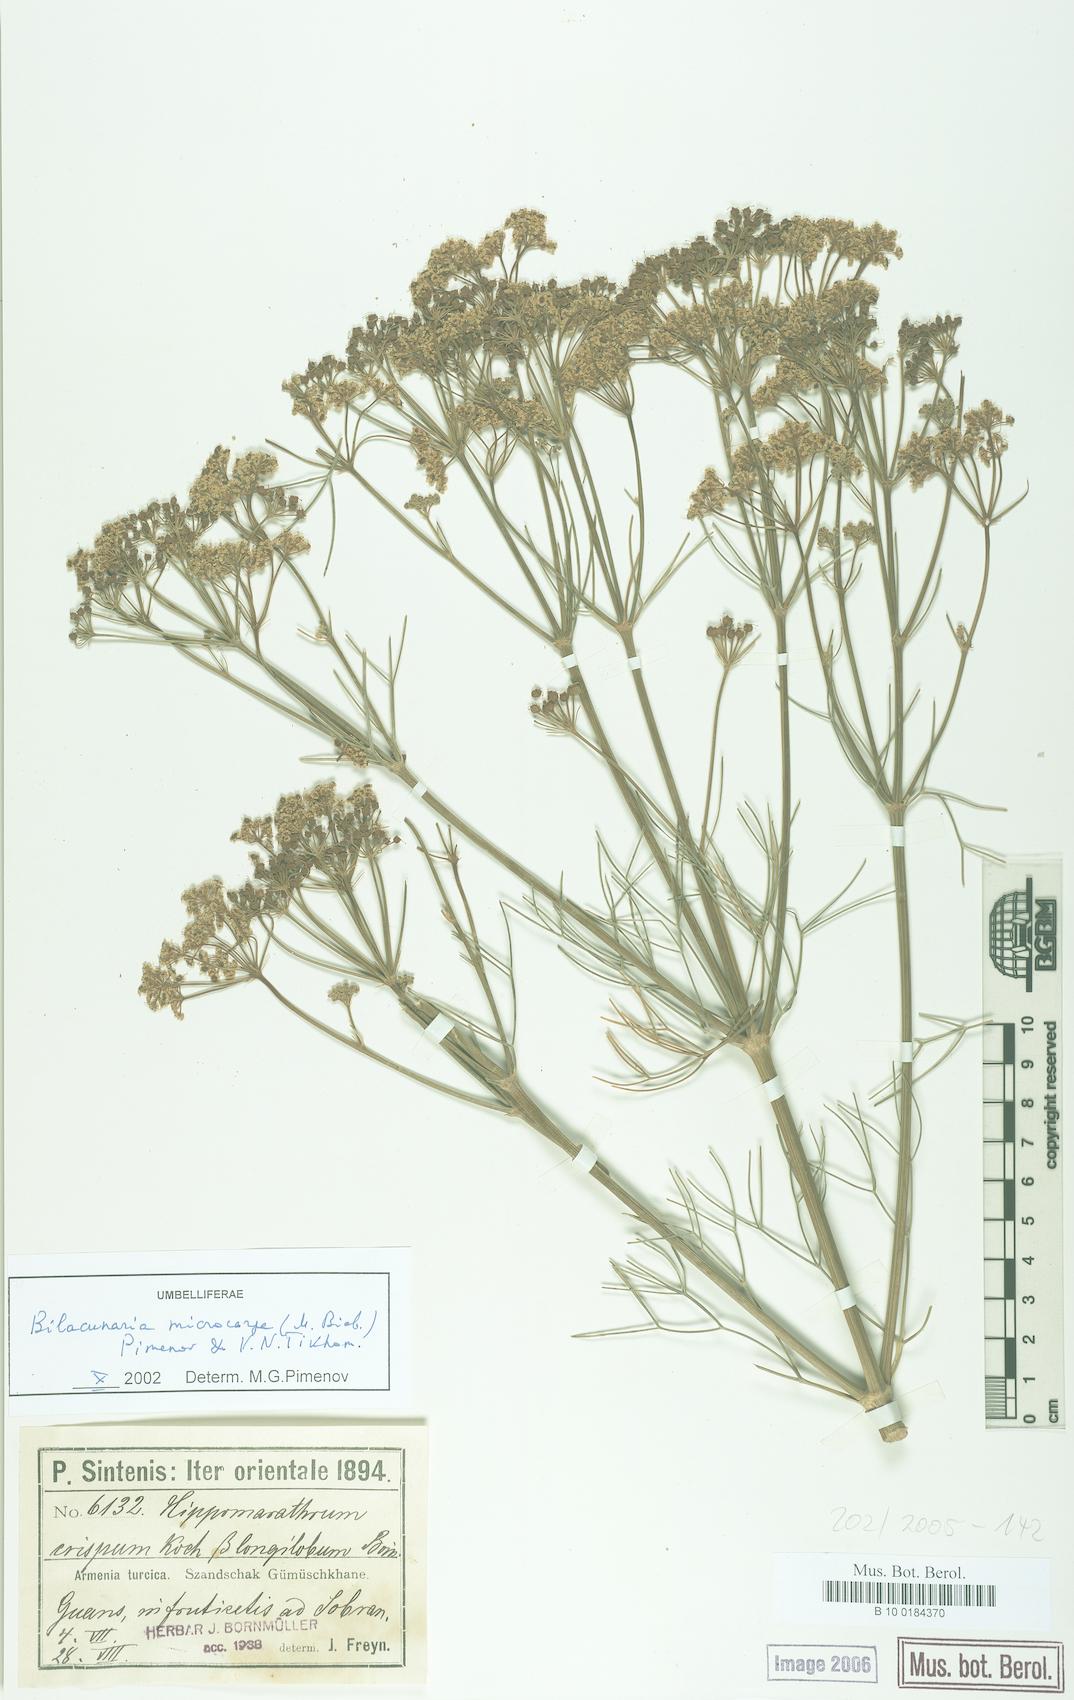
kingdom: Plantae
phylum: Tracheophyta
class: Magnoliopsida
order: Apiales
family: Apiaceae
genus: Bilacunaria
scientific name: Bilacunaria microcarpa
